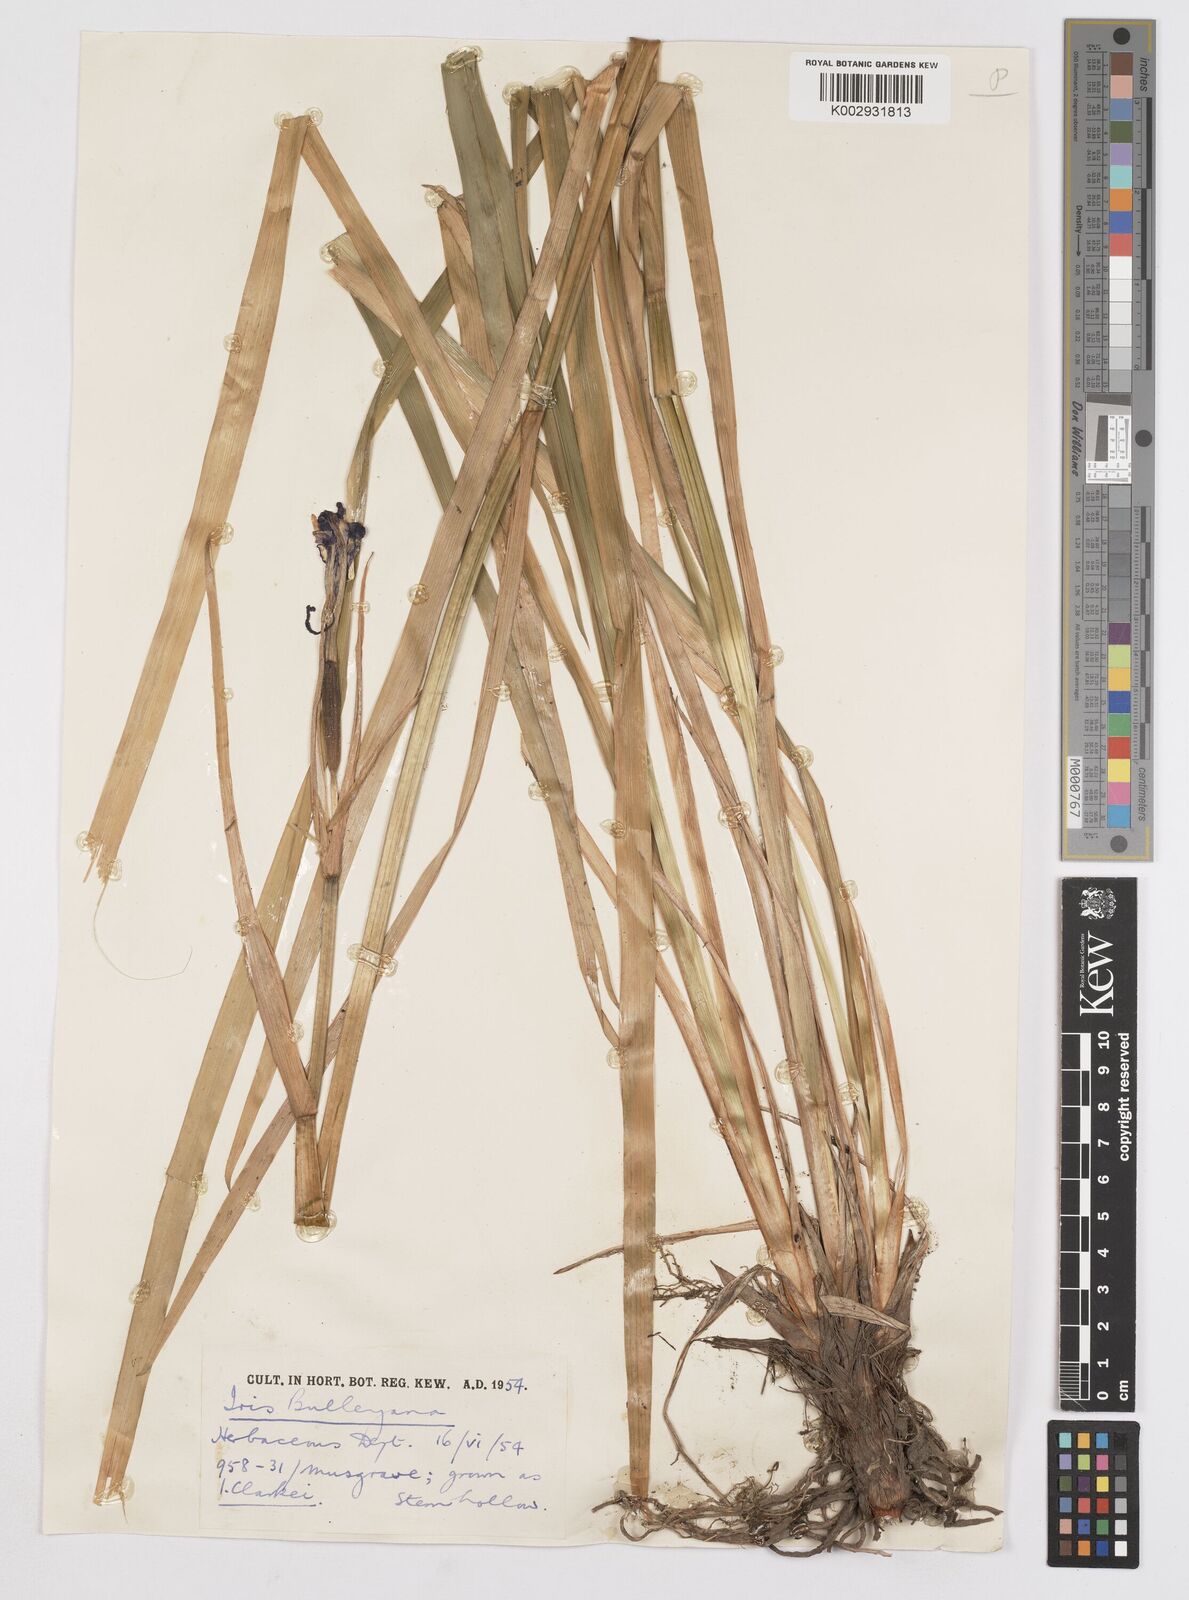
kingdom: Plantae
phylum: Tracheophyta
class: Liliopsida
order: Asparagales
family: Iridaceae
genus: Iris
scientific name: Iris clarkei
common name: Tibet iris
